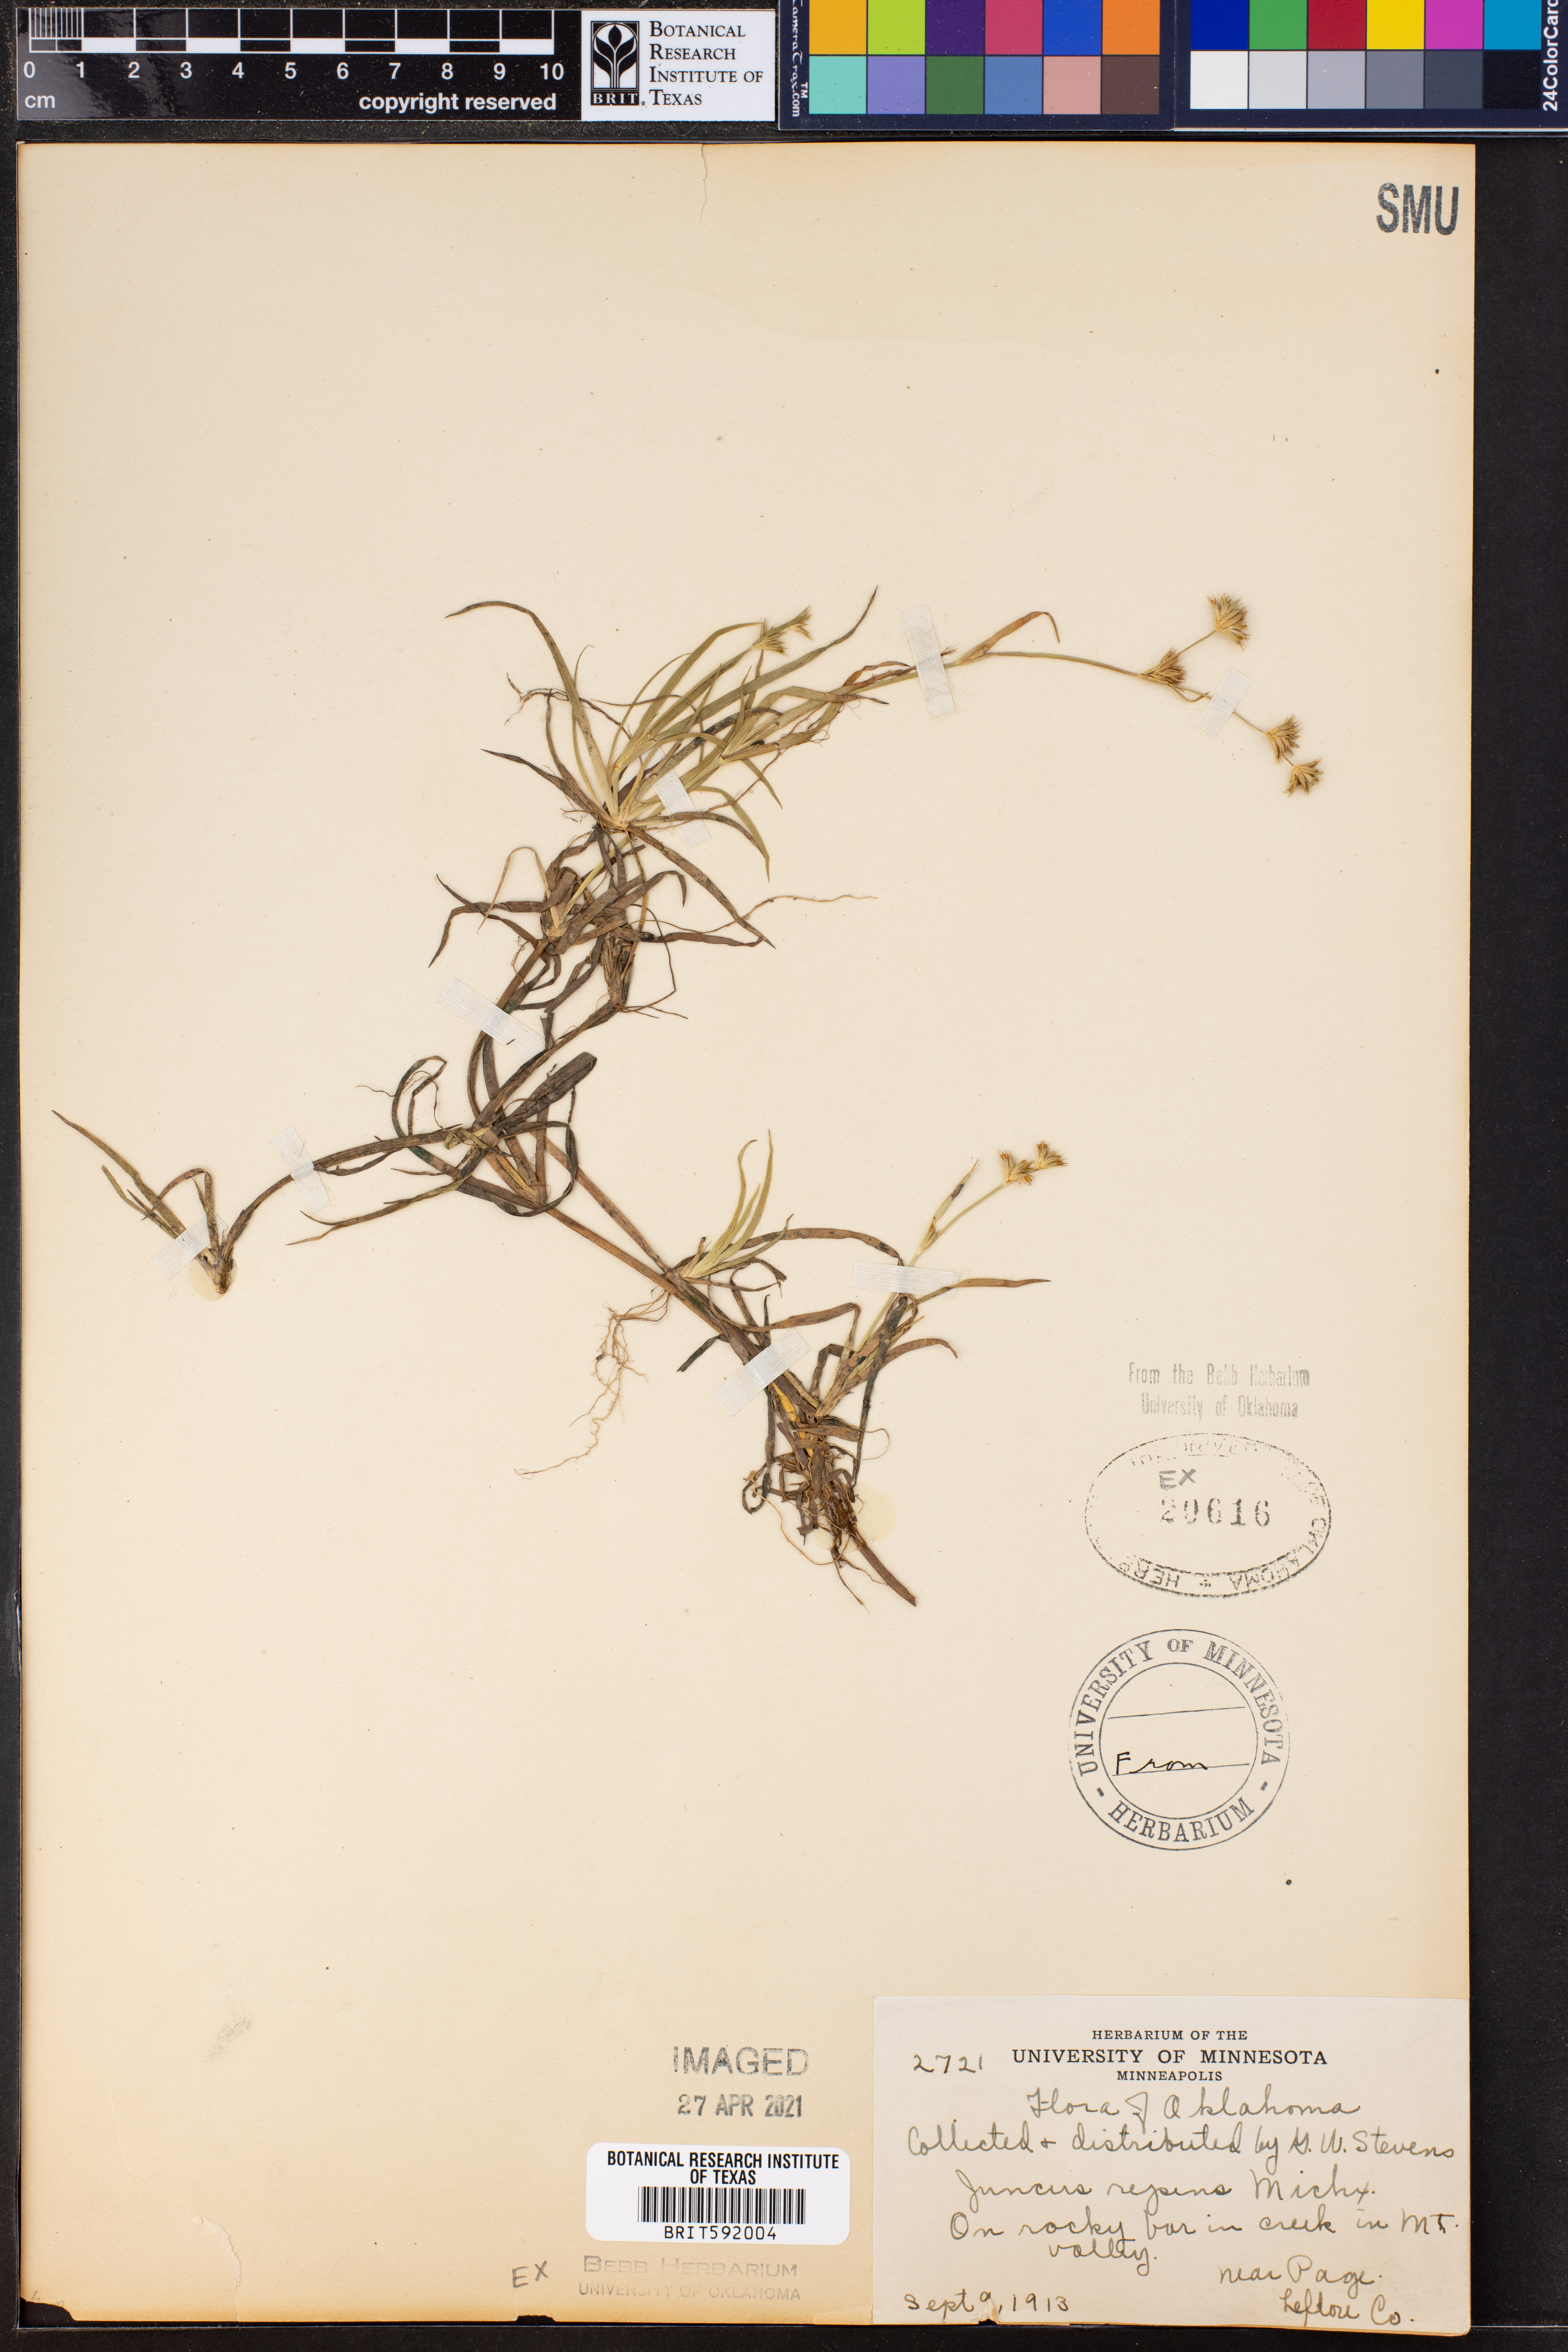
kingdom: Plantae
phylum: Tracheophyta
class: Liliopsida
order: Poales
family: Juncaceae
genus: Juncus
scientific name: Juncus repens
